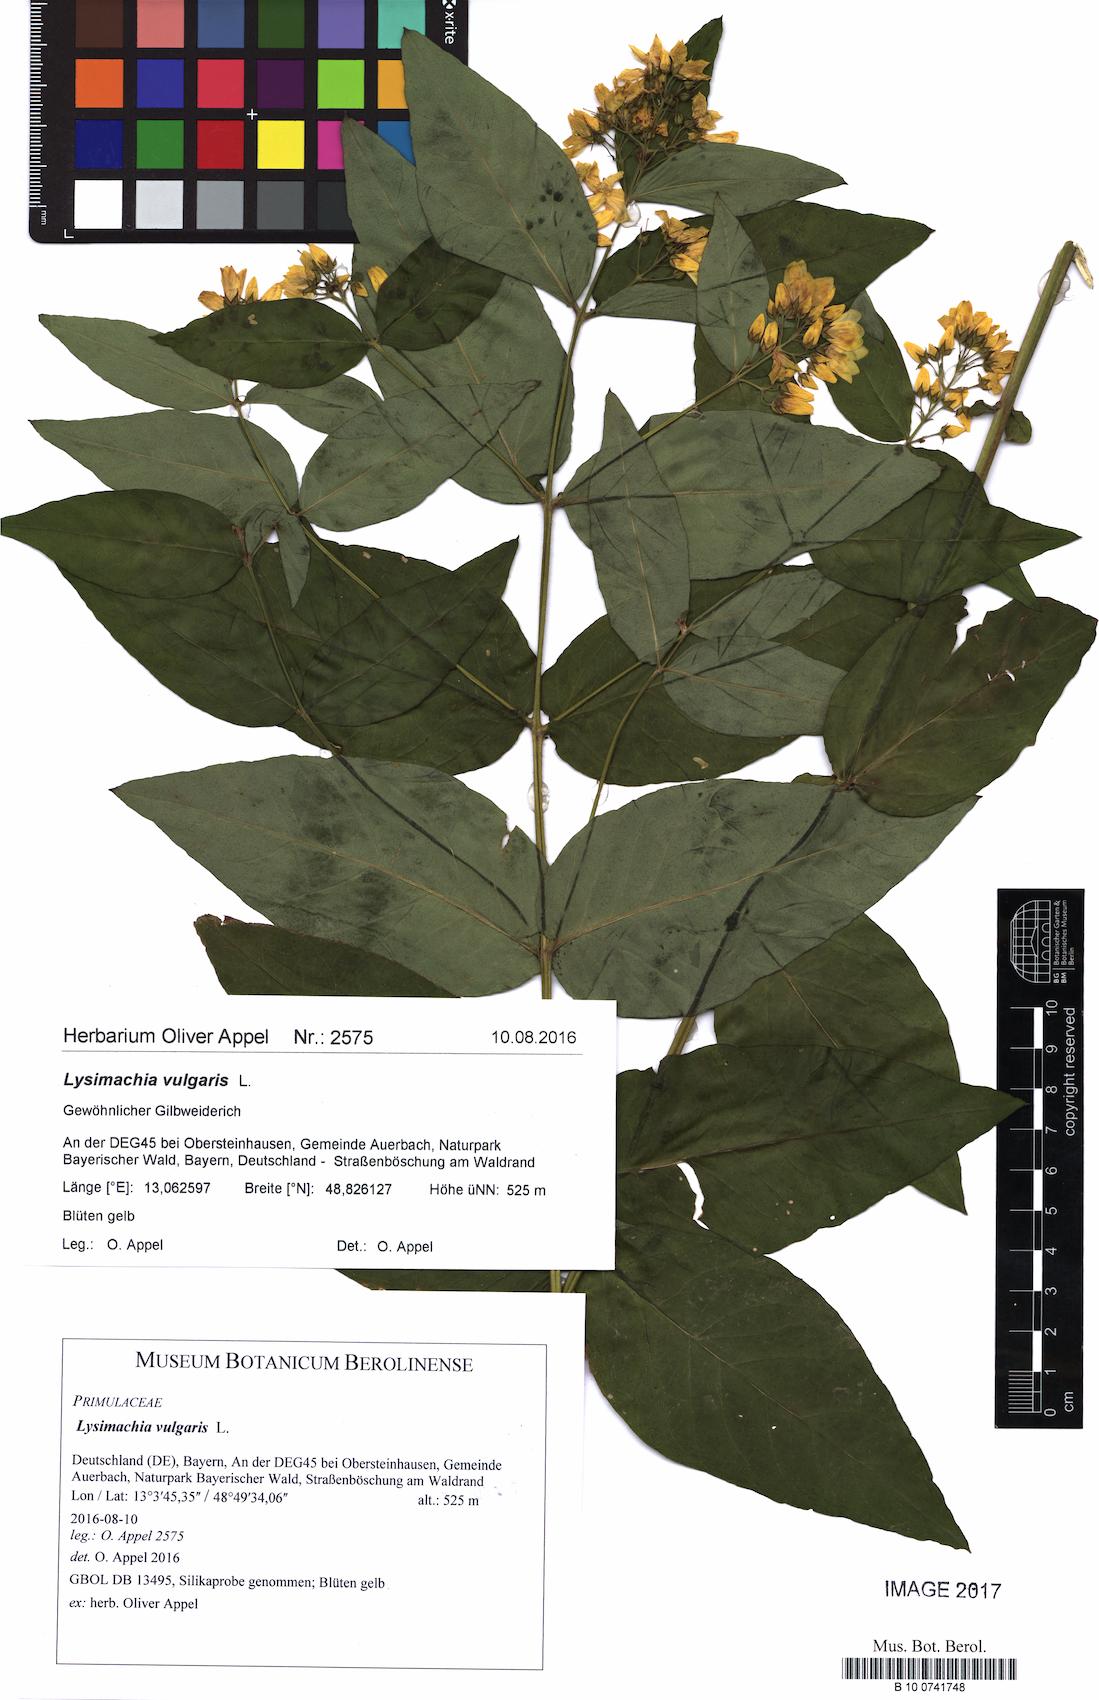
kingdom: Plantae
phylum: Tracheophyta
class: Magnoliopsida
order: Ericales
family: Primulaceae
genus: Lysimachia
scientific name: Lysimachia vulgaris
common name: Yellow loosestrife
